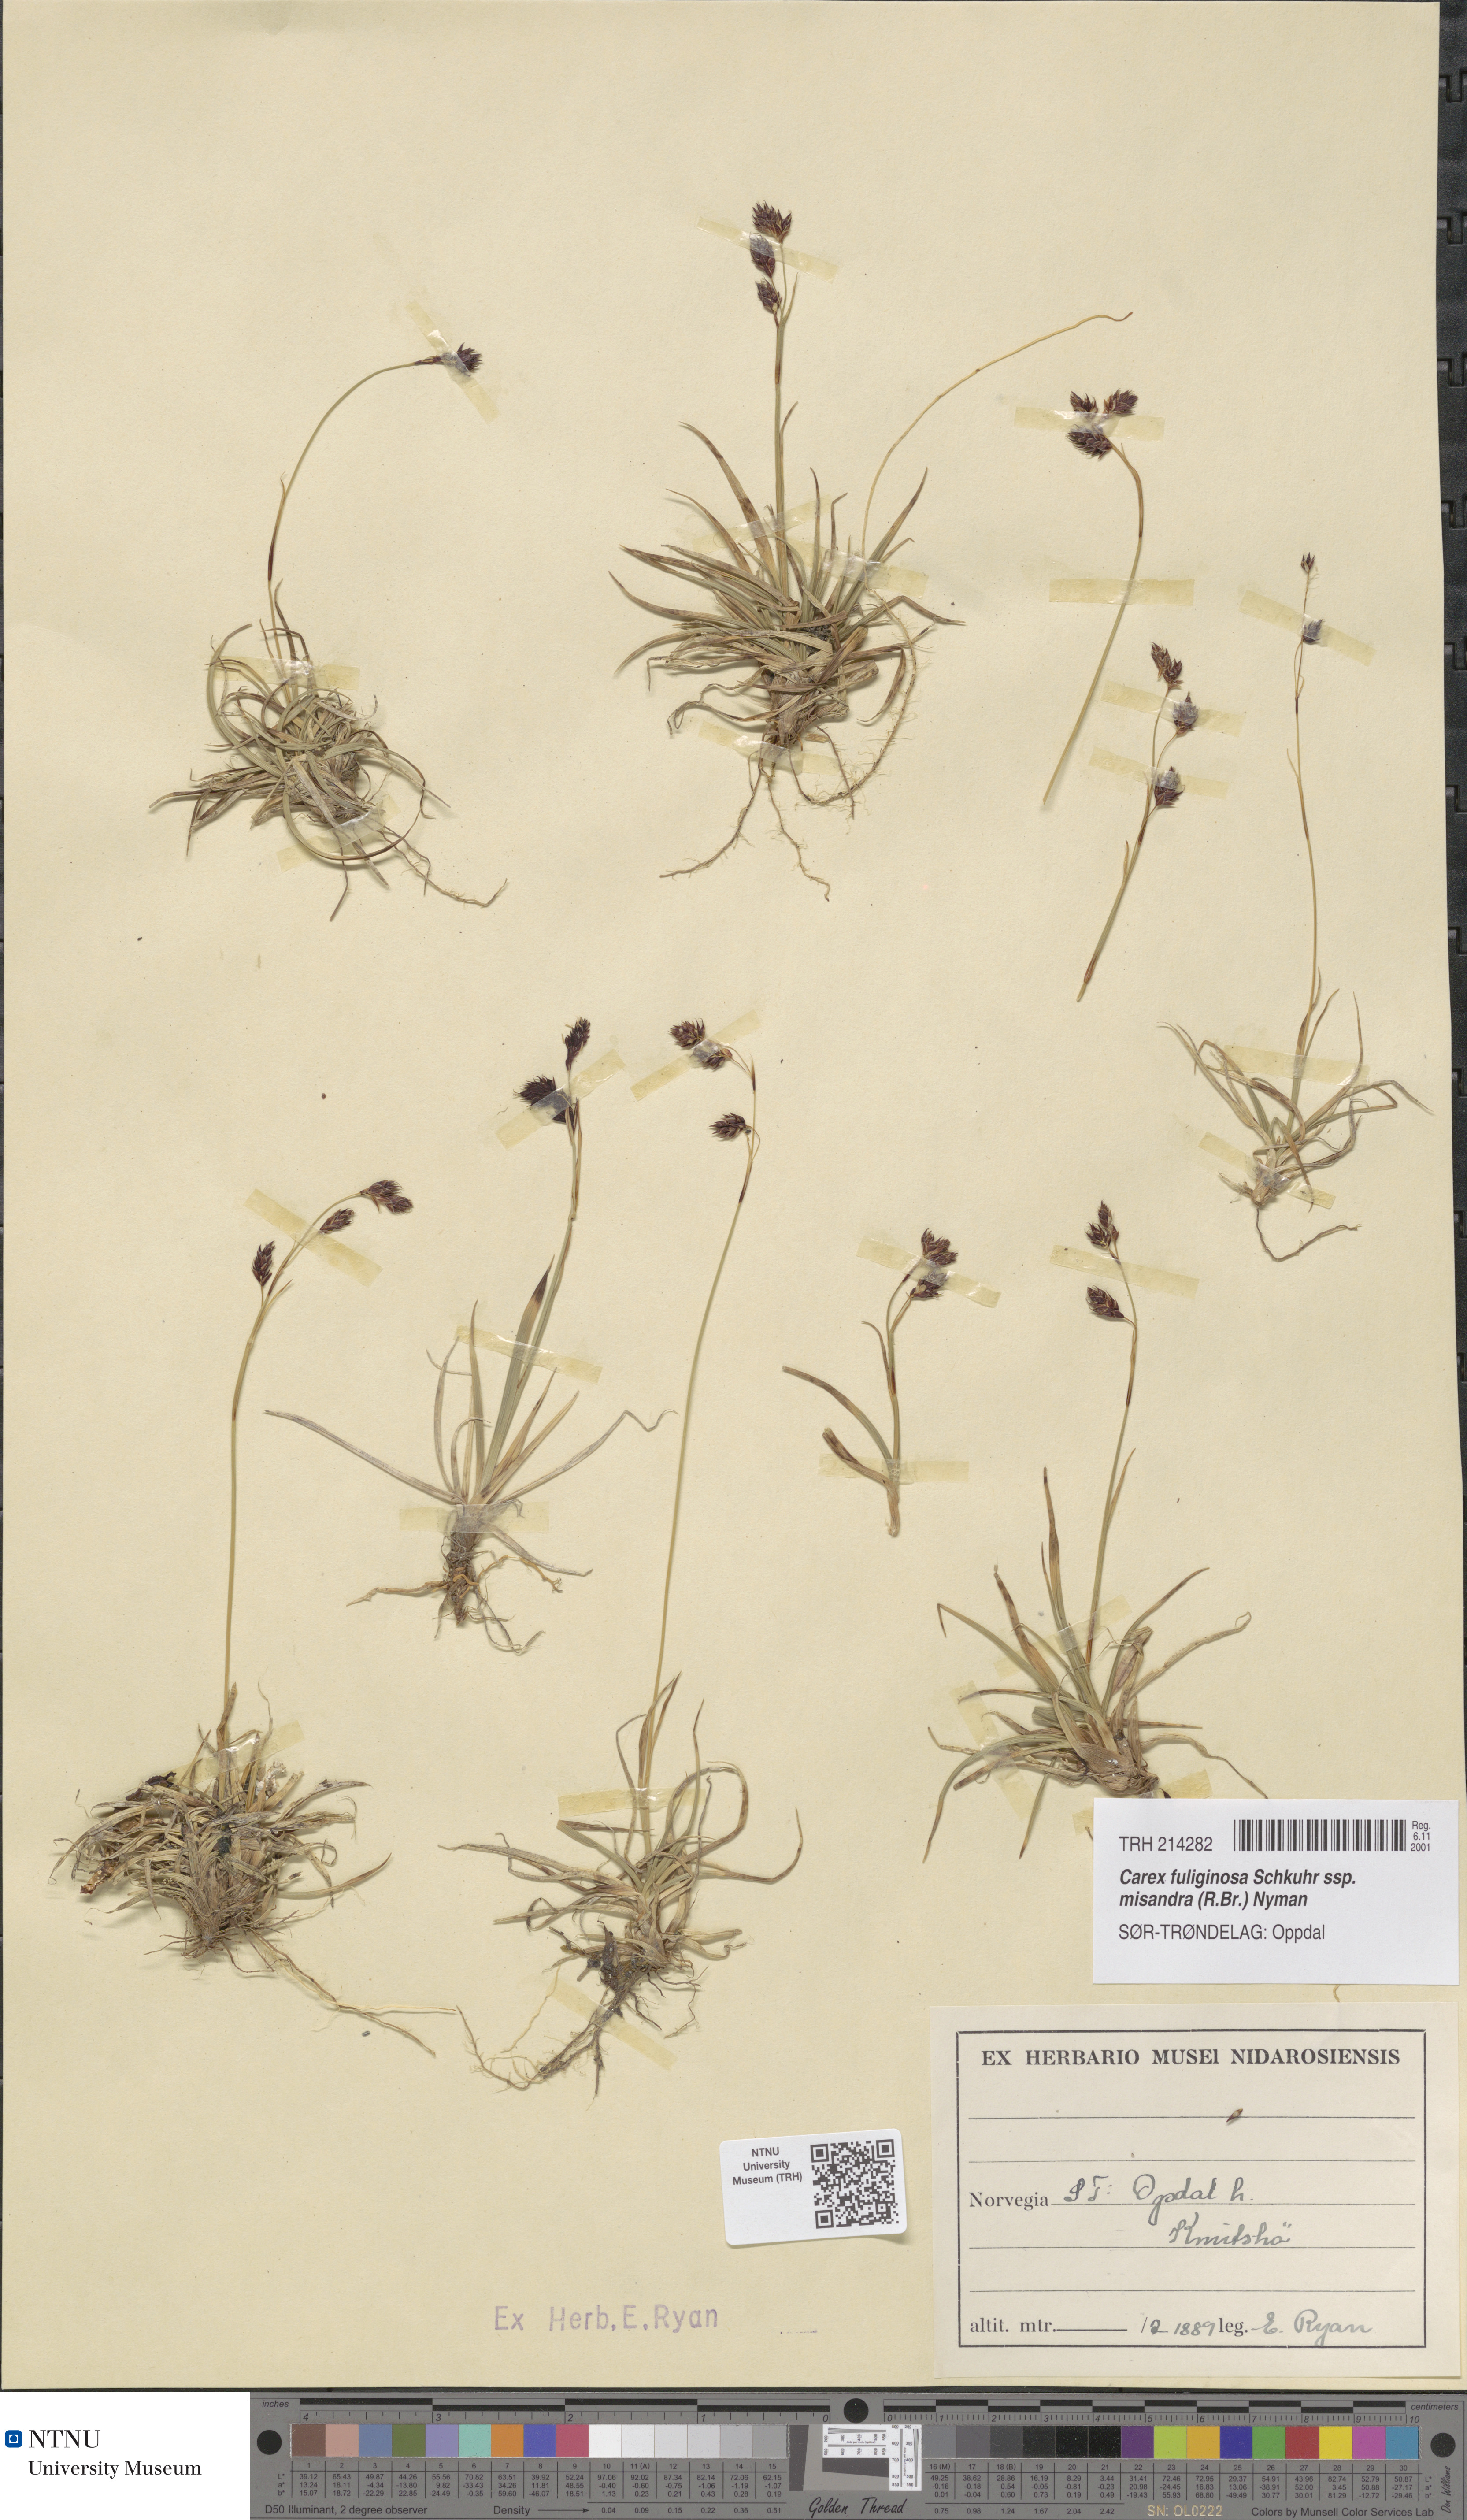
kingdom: Plantae
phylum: Tracheophyta
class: Liliopsida
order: Poales
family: Cyperaceae
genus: Carex
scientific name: Carex fuliginosa
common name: Few-flowered sedge
